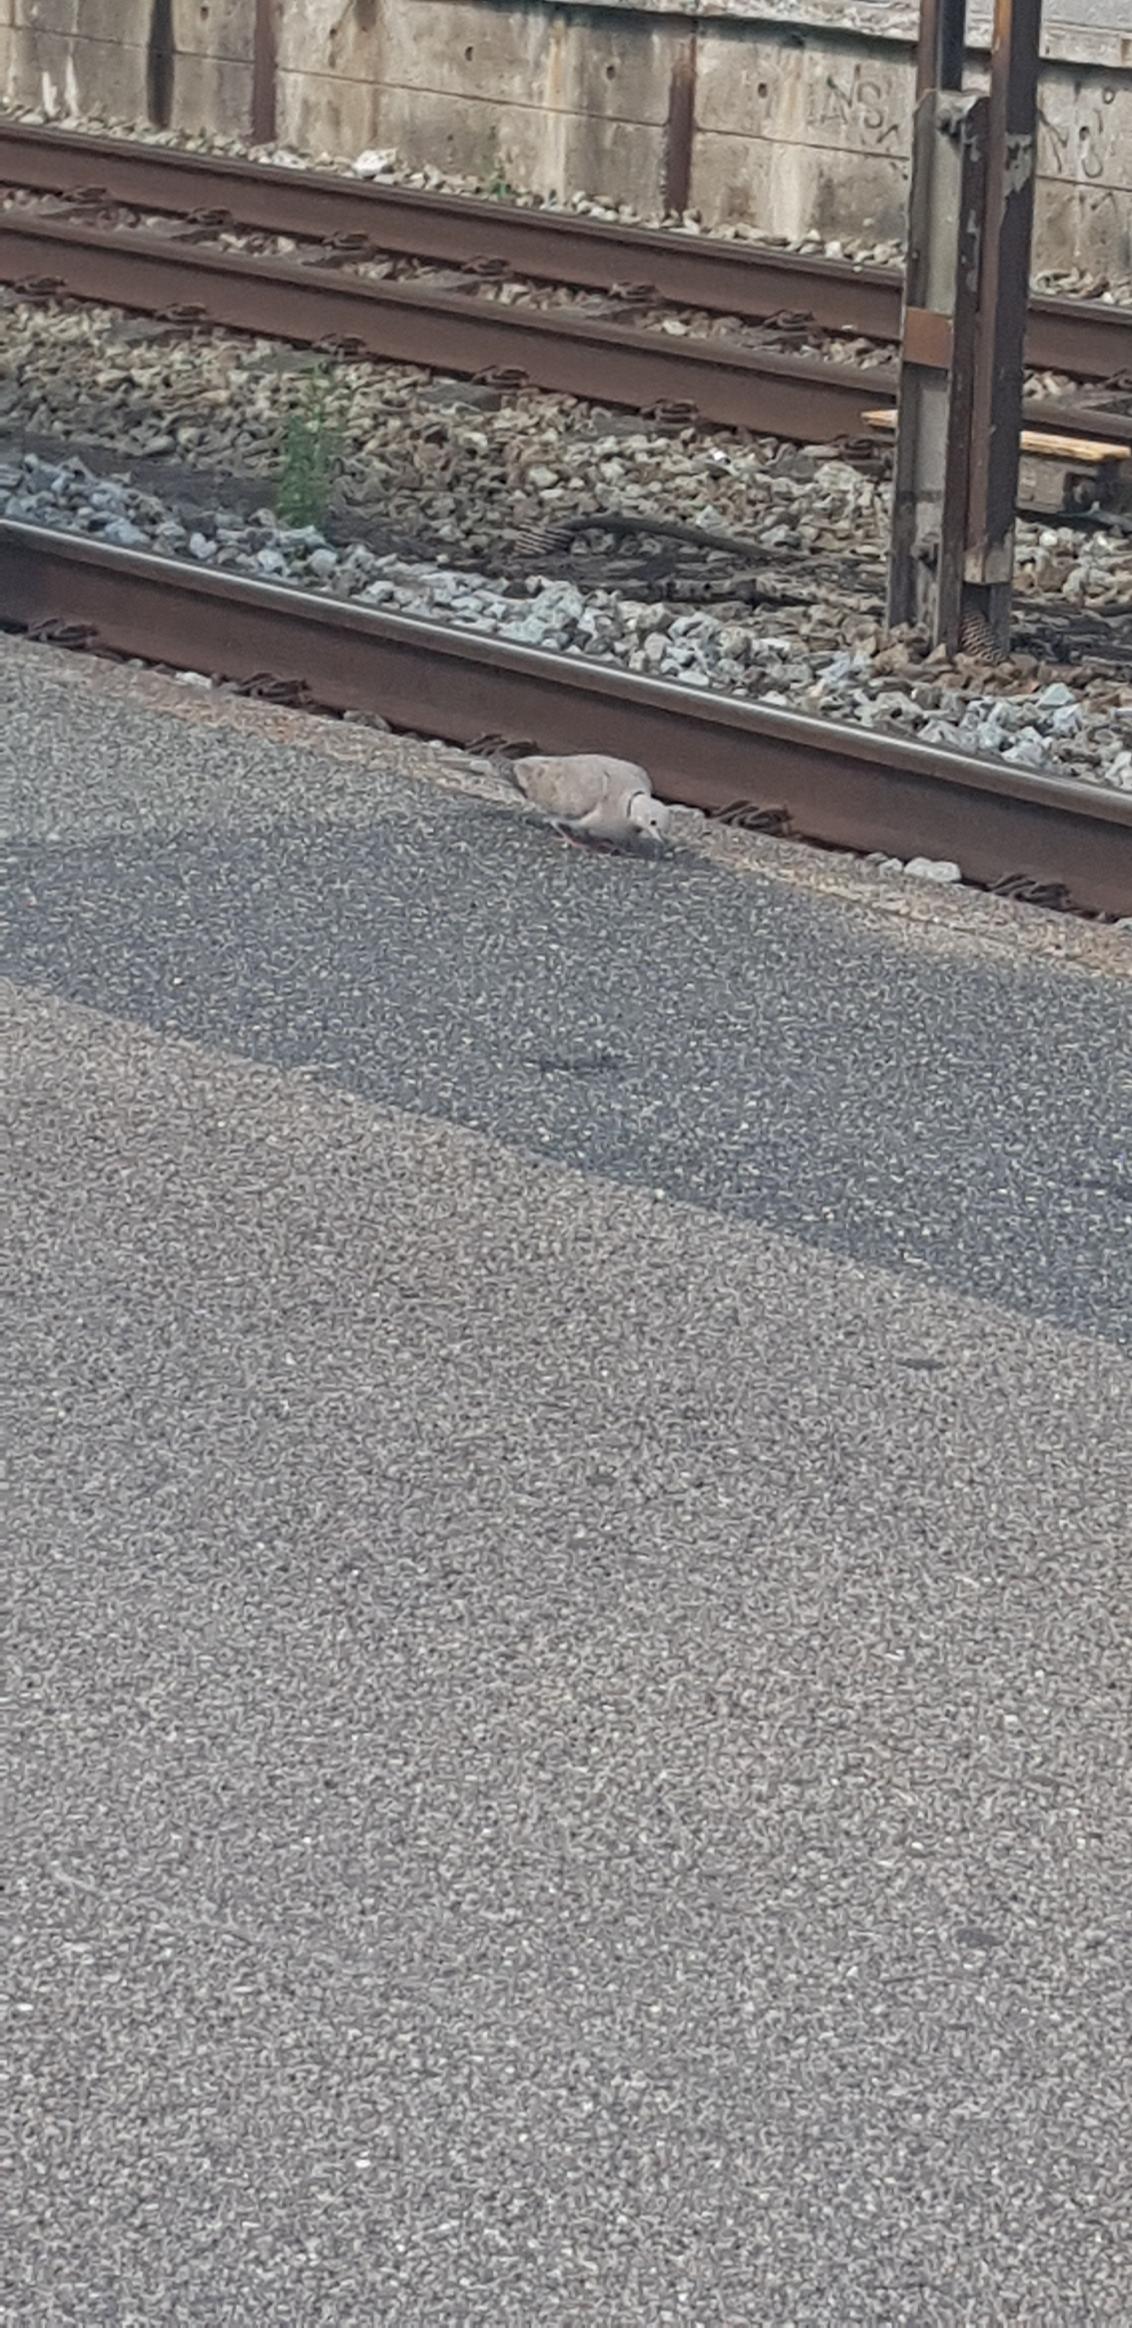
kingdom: Animalia
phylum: Chordata
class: Aves
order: Columbiformes
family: Columbidae
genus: Streptopelia
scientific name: Streptopelia decaocto
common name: Tyrkerdue
